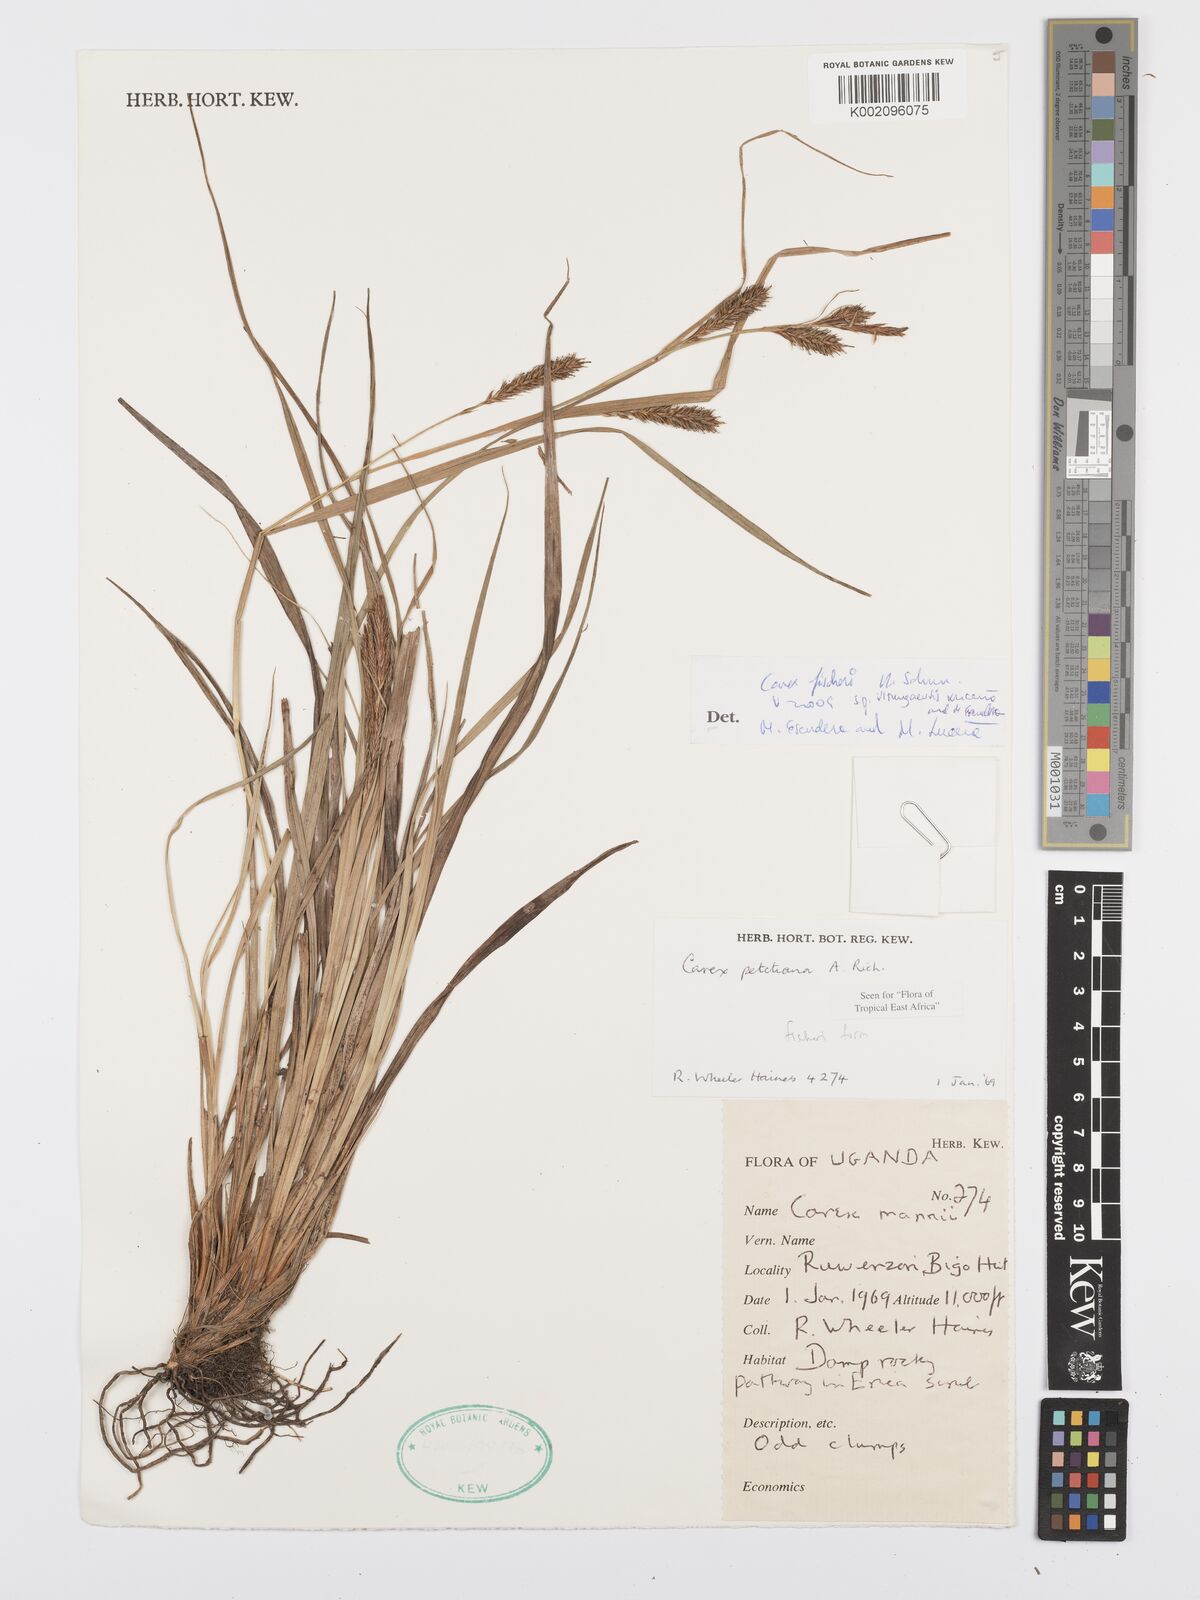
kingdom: Plantae
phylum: Tracheophyta
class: Liliopsida
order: Poales
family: Cyperaceae
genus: Carex
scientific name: Carex fischeri
